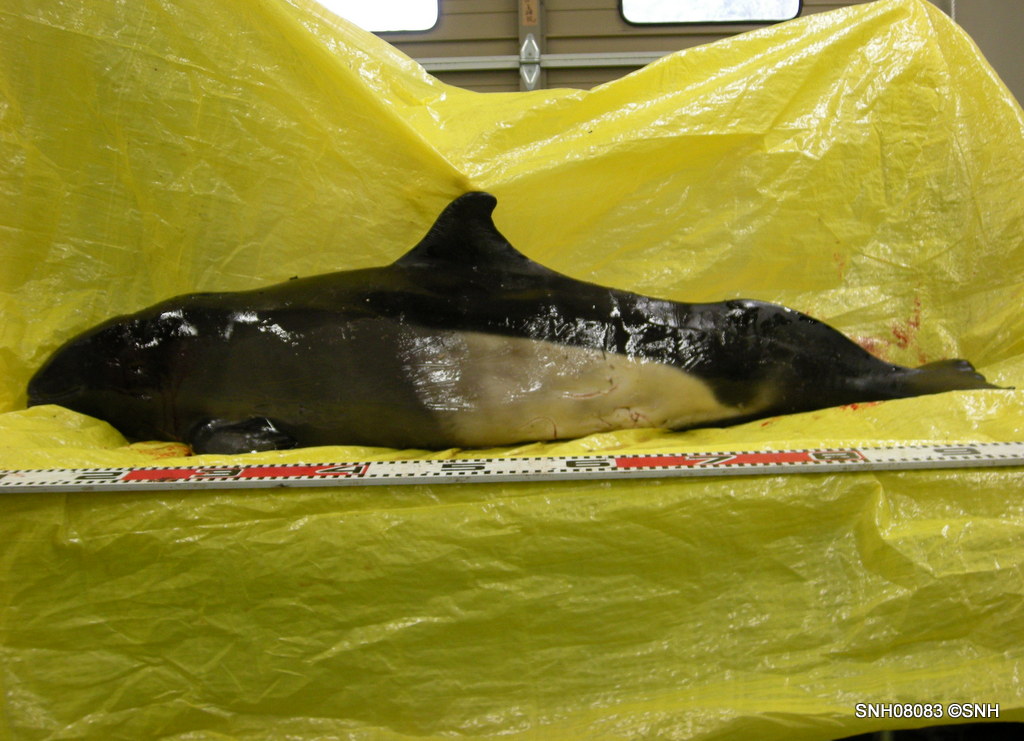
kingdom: Animalia
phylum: Chordata
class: Mammalia
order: Cetacea
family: Phocoenidae
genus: Phocoenoides
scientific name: Phocoenoides dalli
